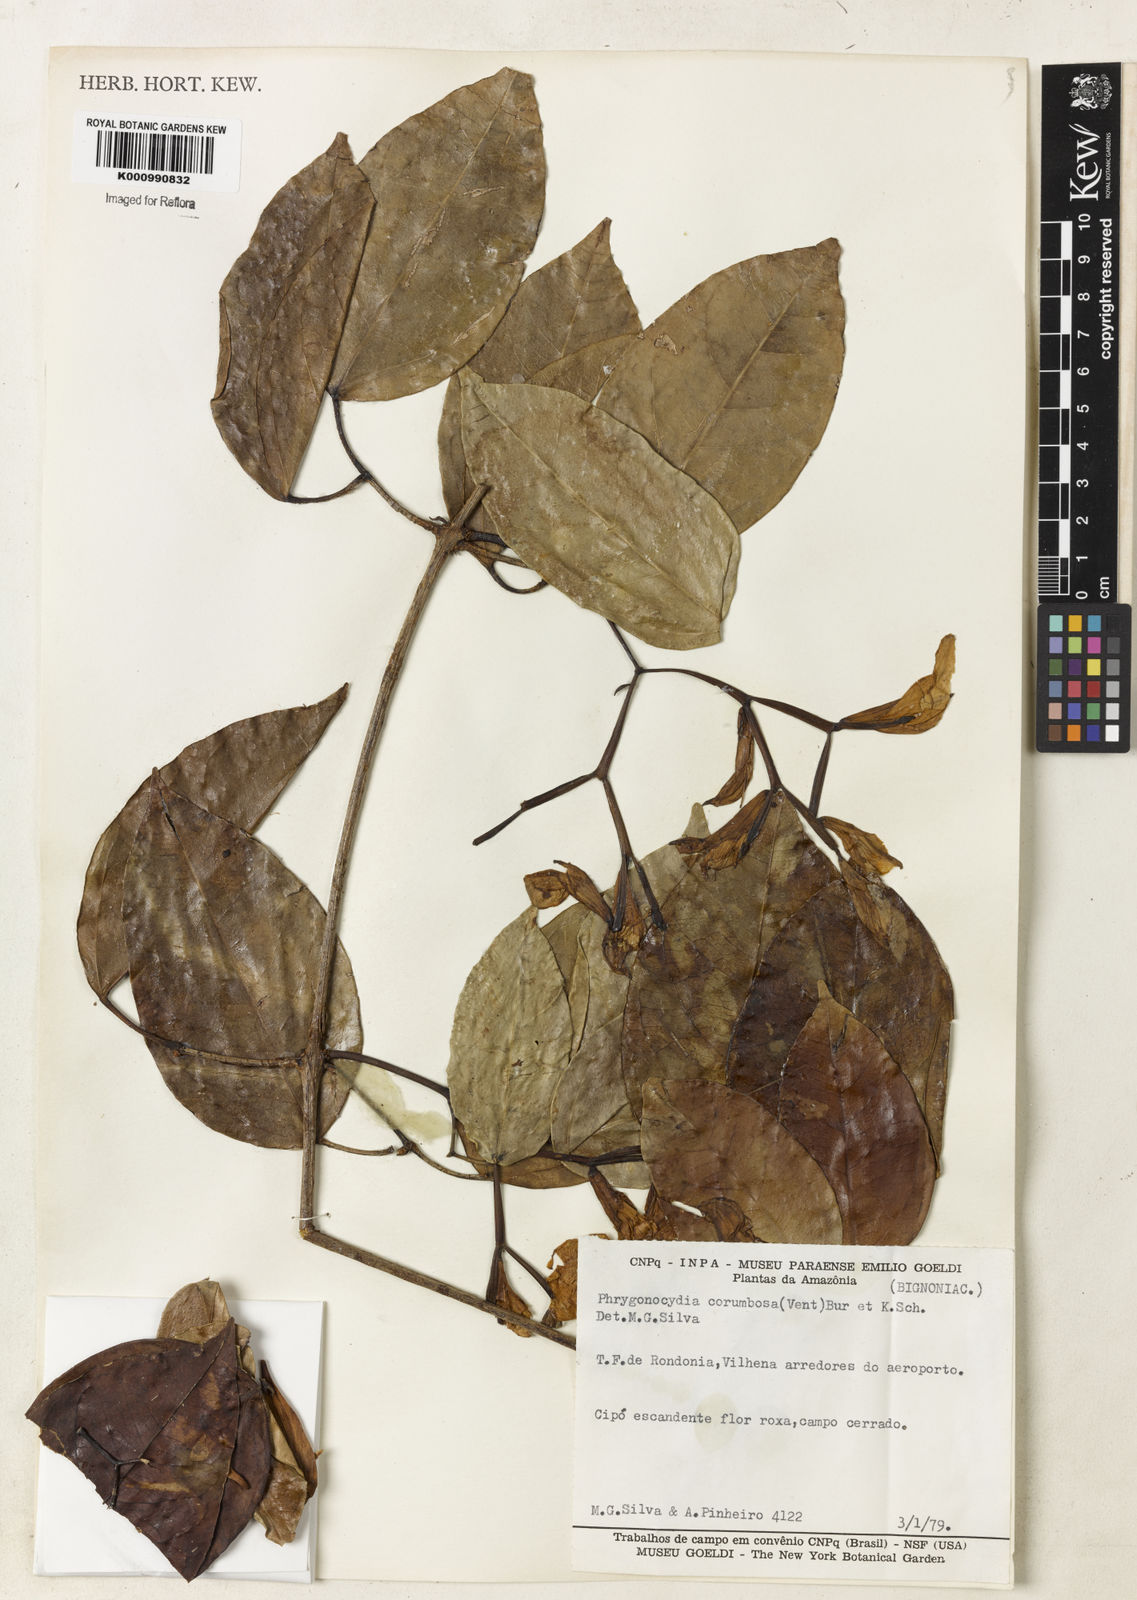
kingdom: Plantae
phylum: Tracheophyta
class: Magnoliopsida
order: Lamiales
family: Bignoniaceae
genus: Bignonia
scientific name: Bignonia corymbosa
